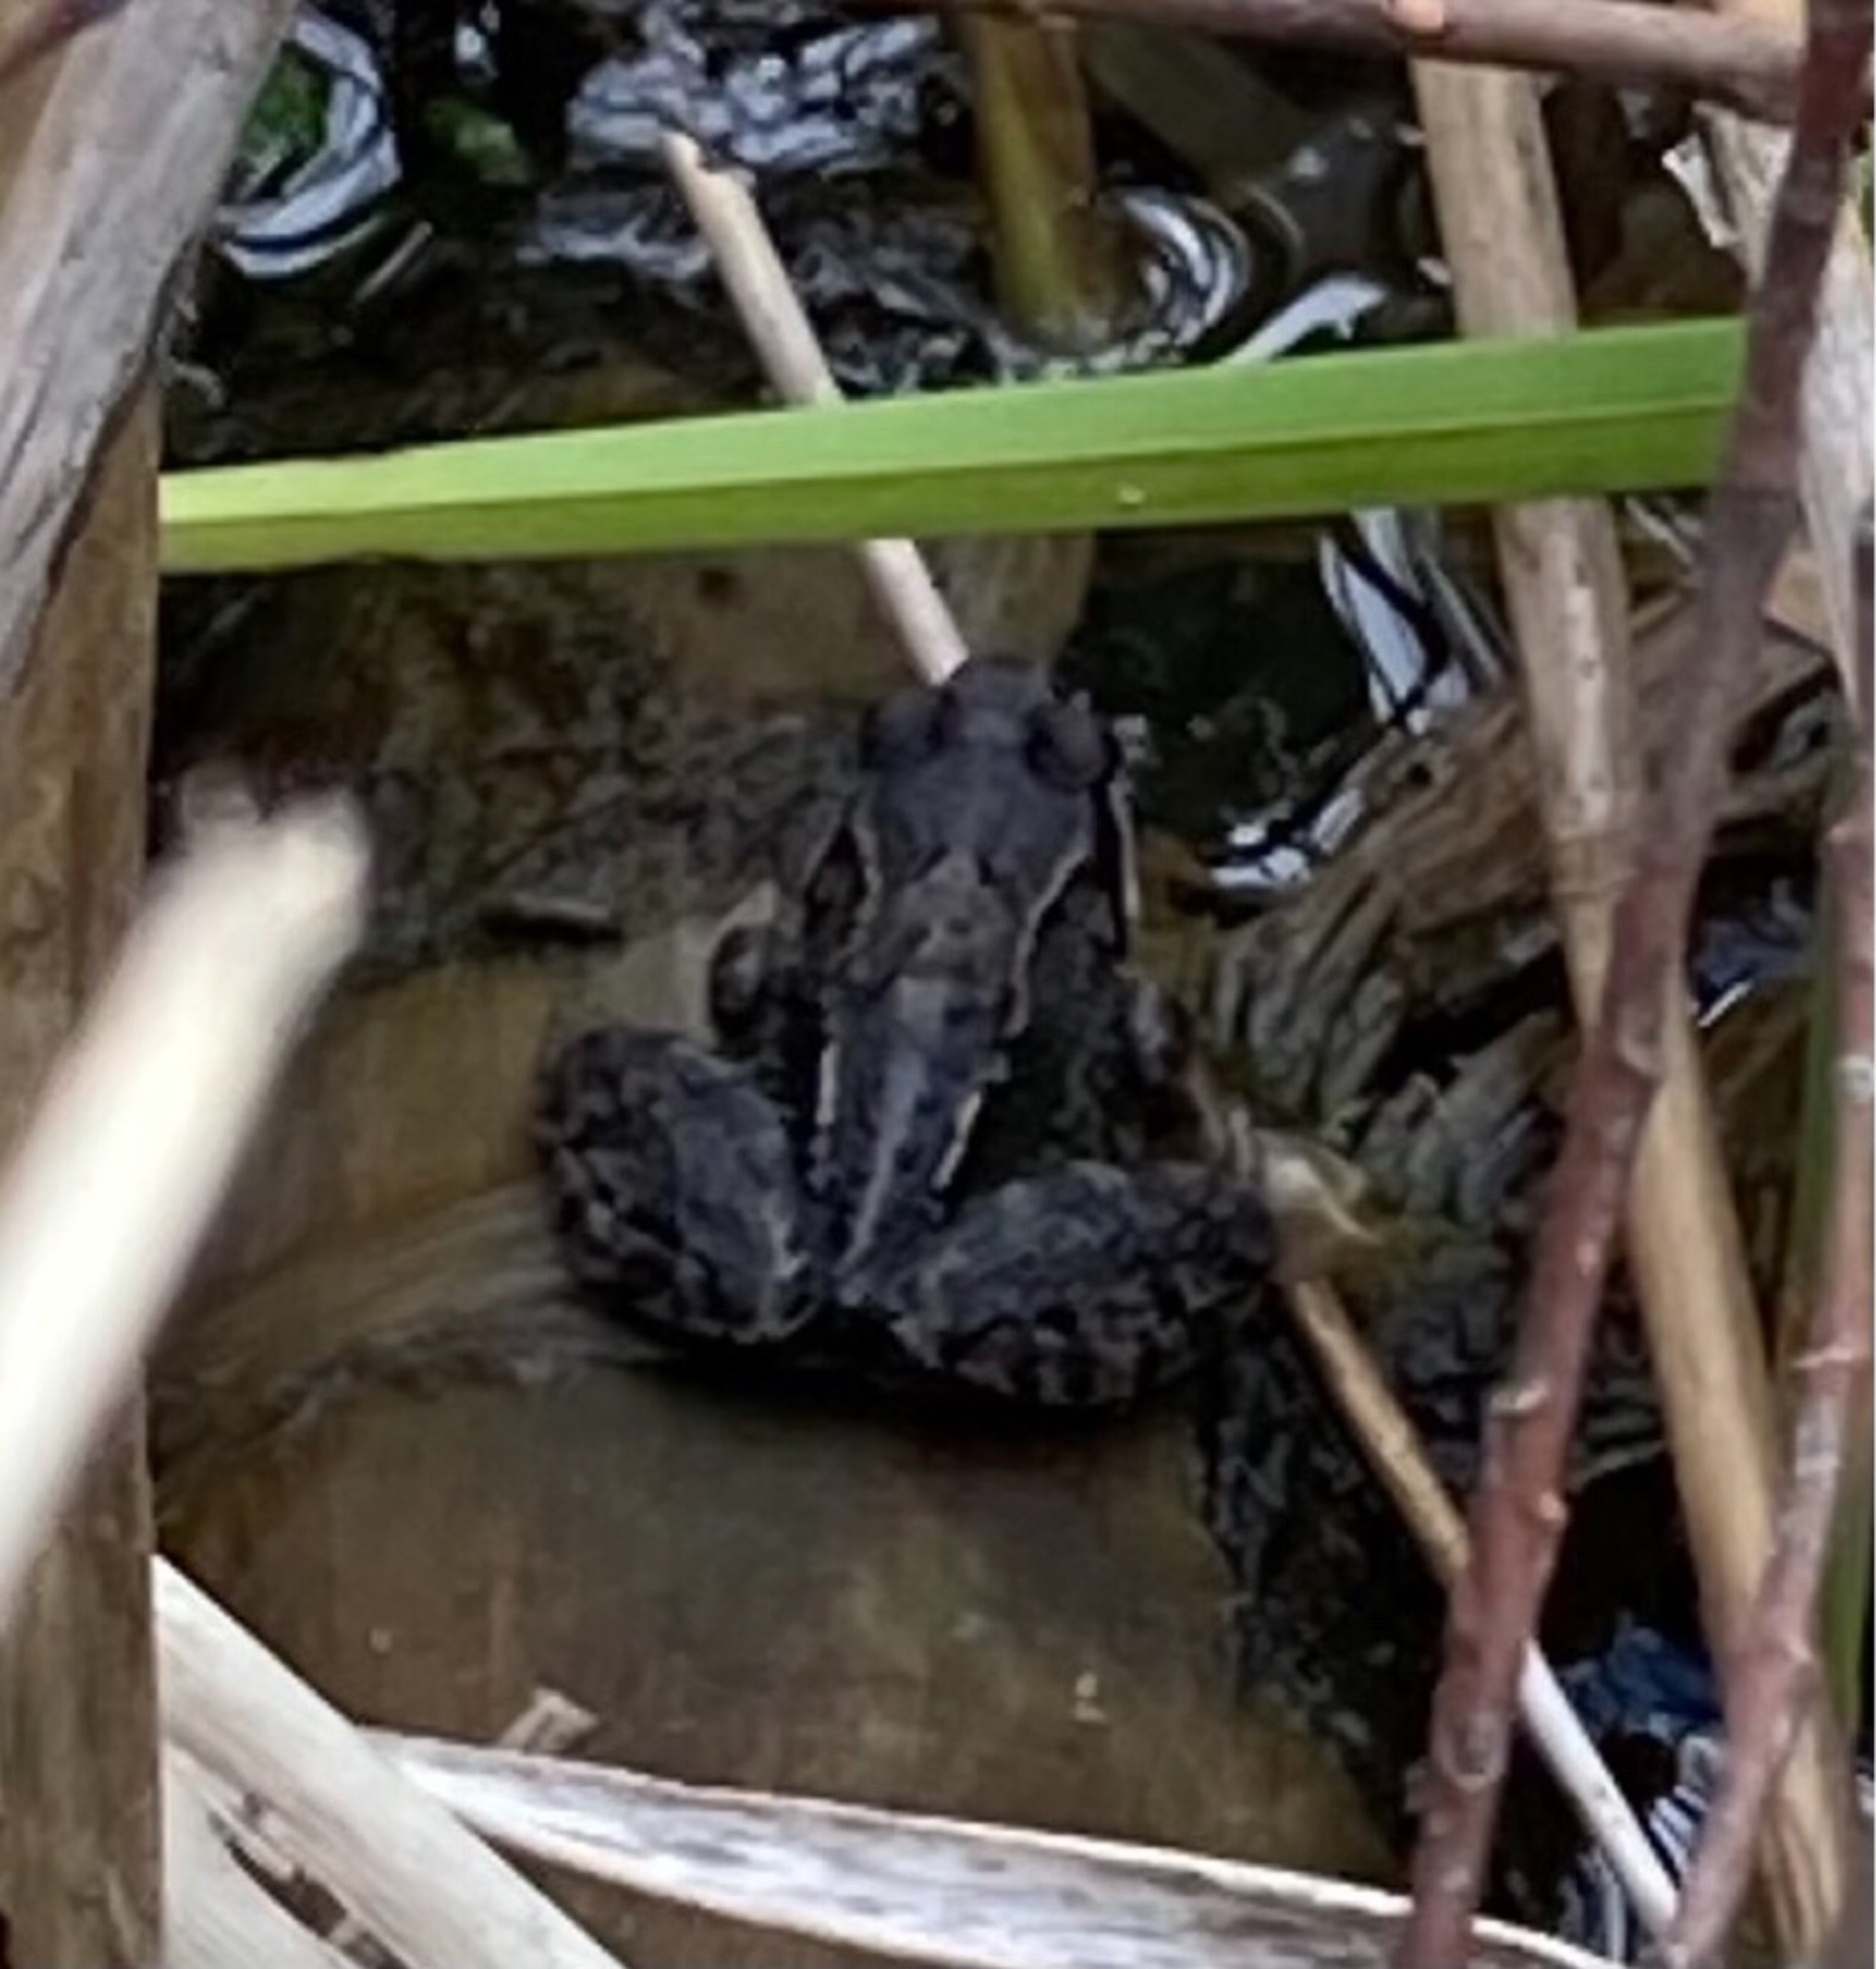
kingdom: Animalia
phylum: Chordata
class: Amphibia
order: Anura
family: Ranidae
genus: Rana
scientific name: Rana
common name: Rana
